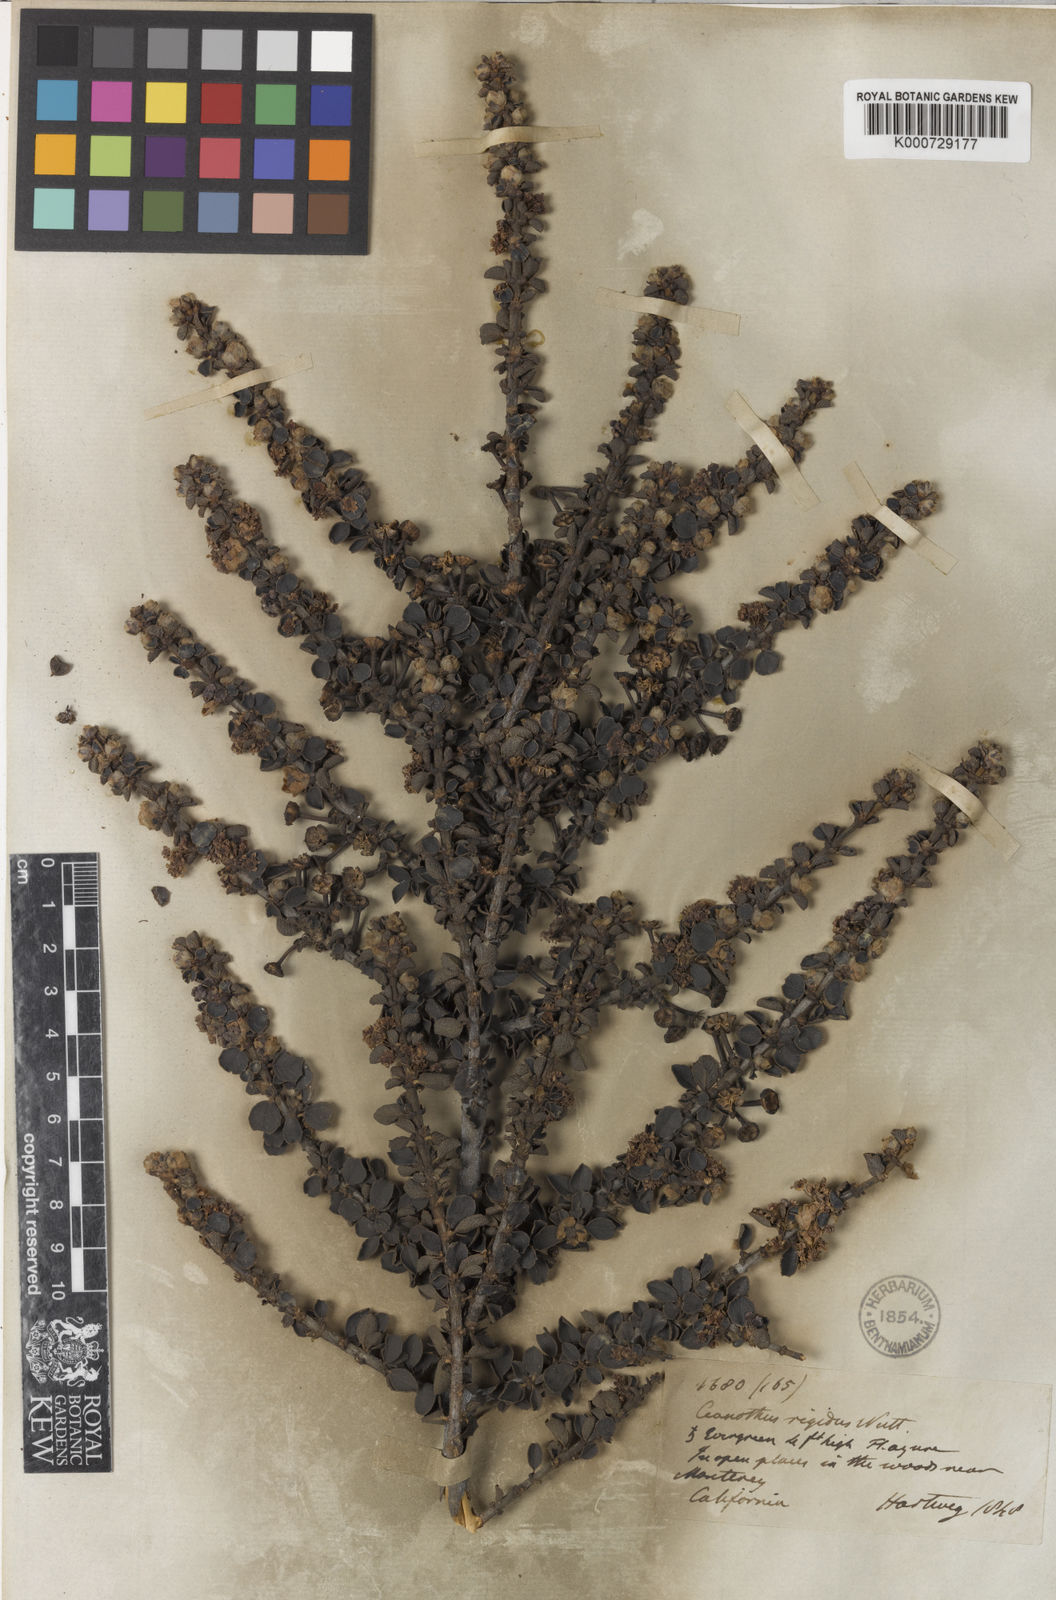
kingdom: Plantae
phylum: Tracheophyta
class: Magnoliopsida
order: Rosales
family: Rhamnaceae
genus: Ceanothus
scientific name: Ceanothus cuneatus
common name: Cuneate ceanothus
